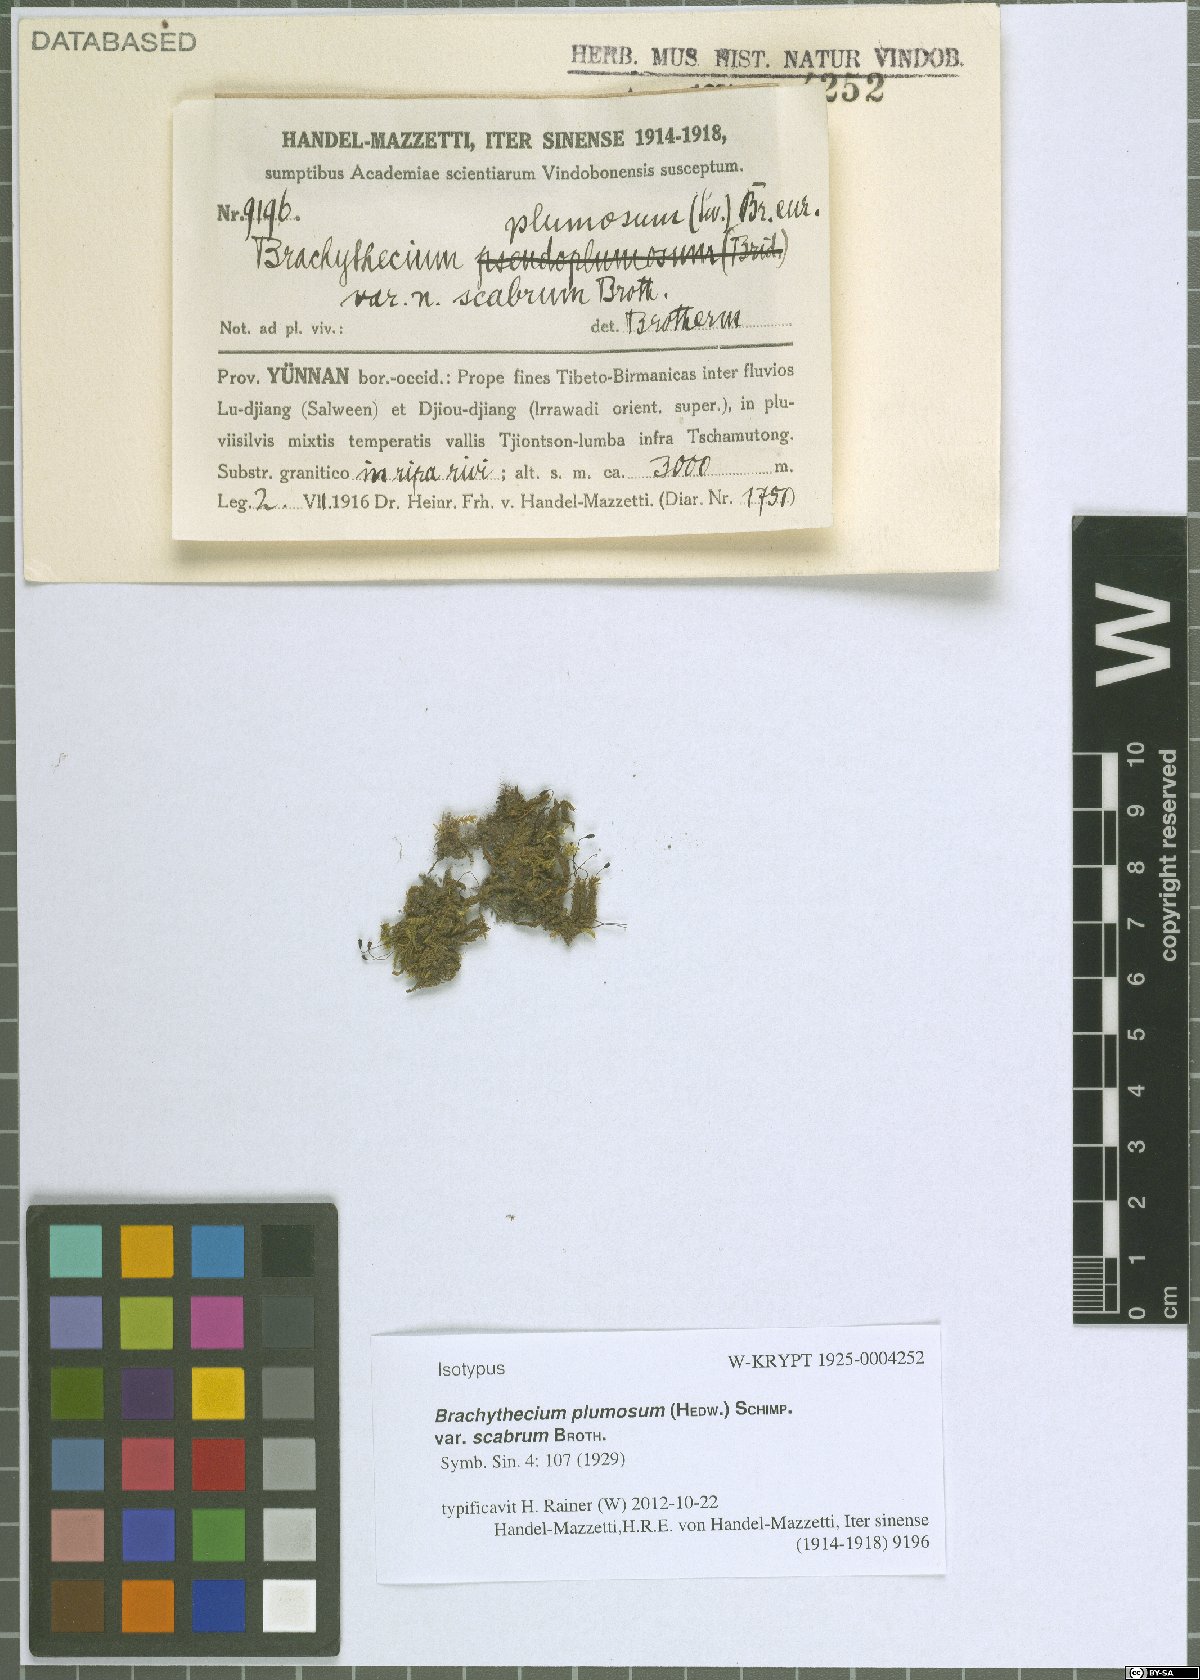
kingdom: Plantae
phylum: Bryophyta
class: Bryopsida
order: Hypnales
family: Brachytheciaceae
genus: Sciuro-hypnum
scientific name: Sciuro-hypnum plumosum
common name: Rusty feather-moss
